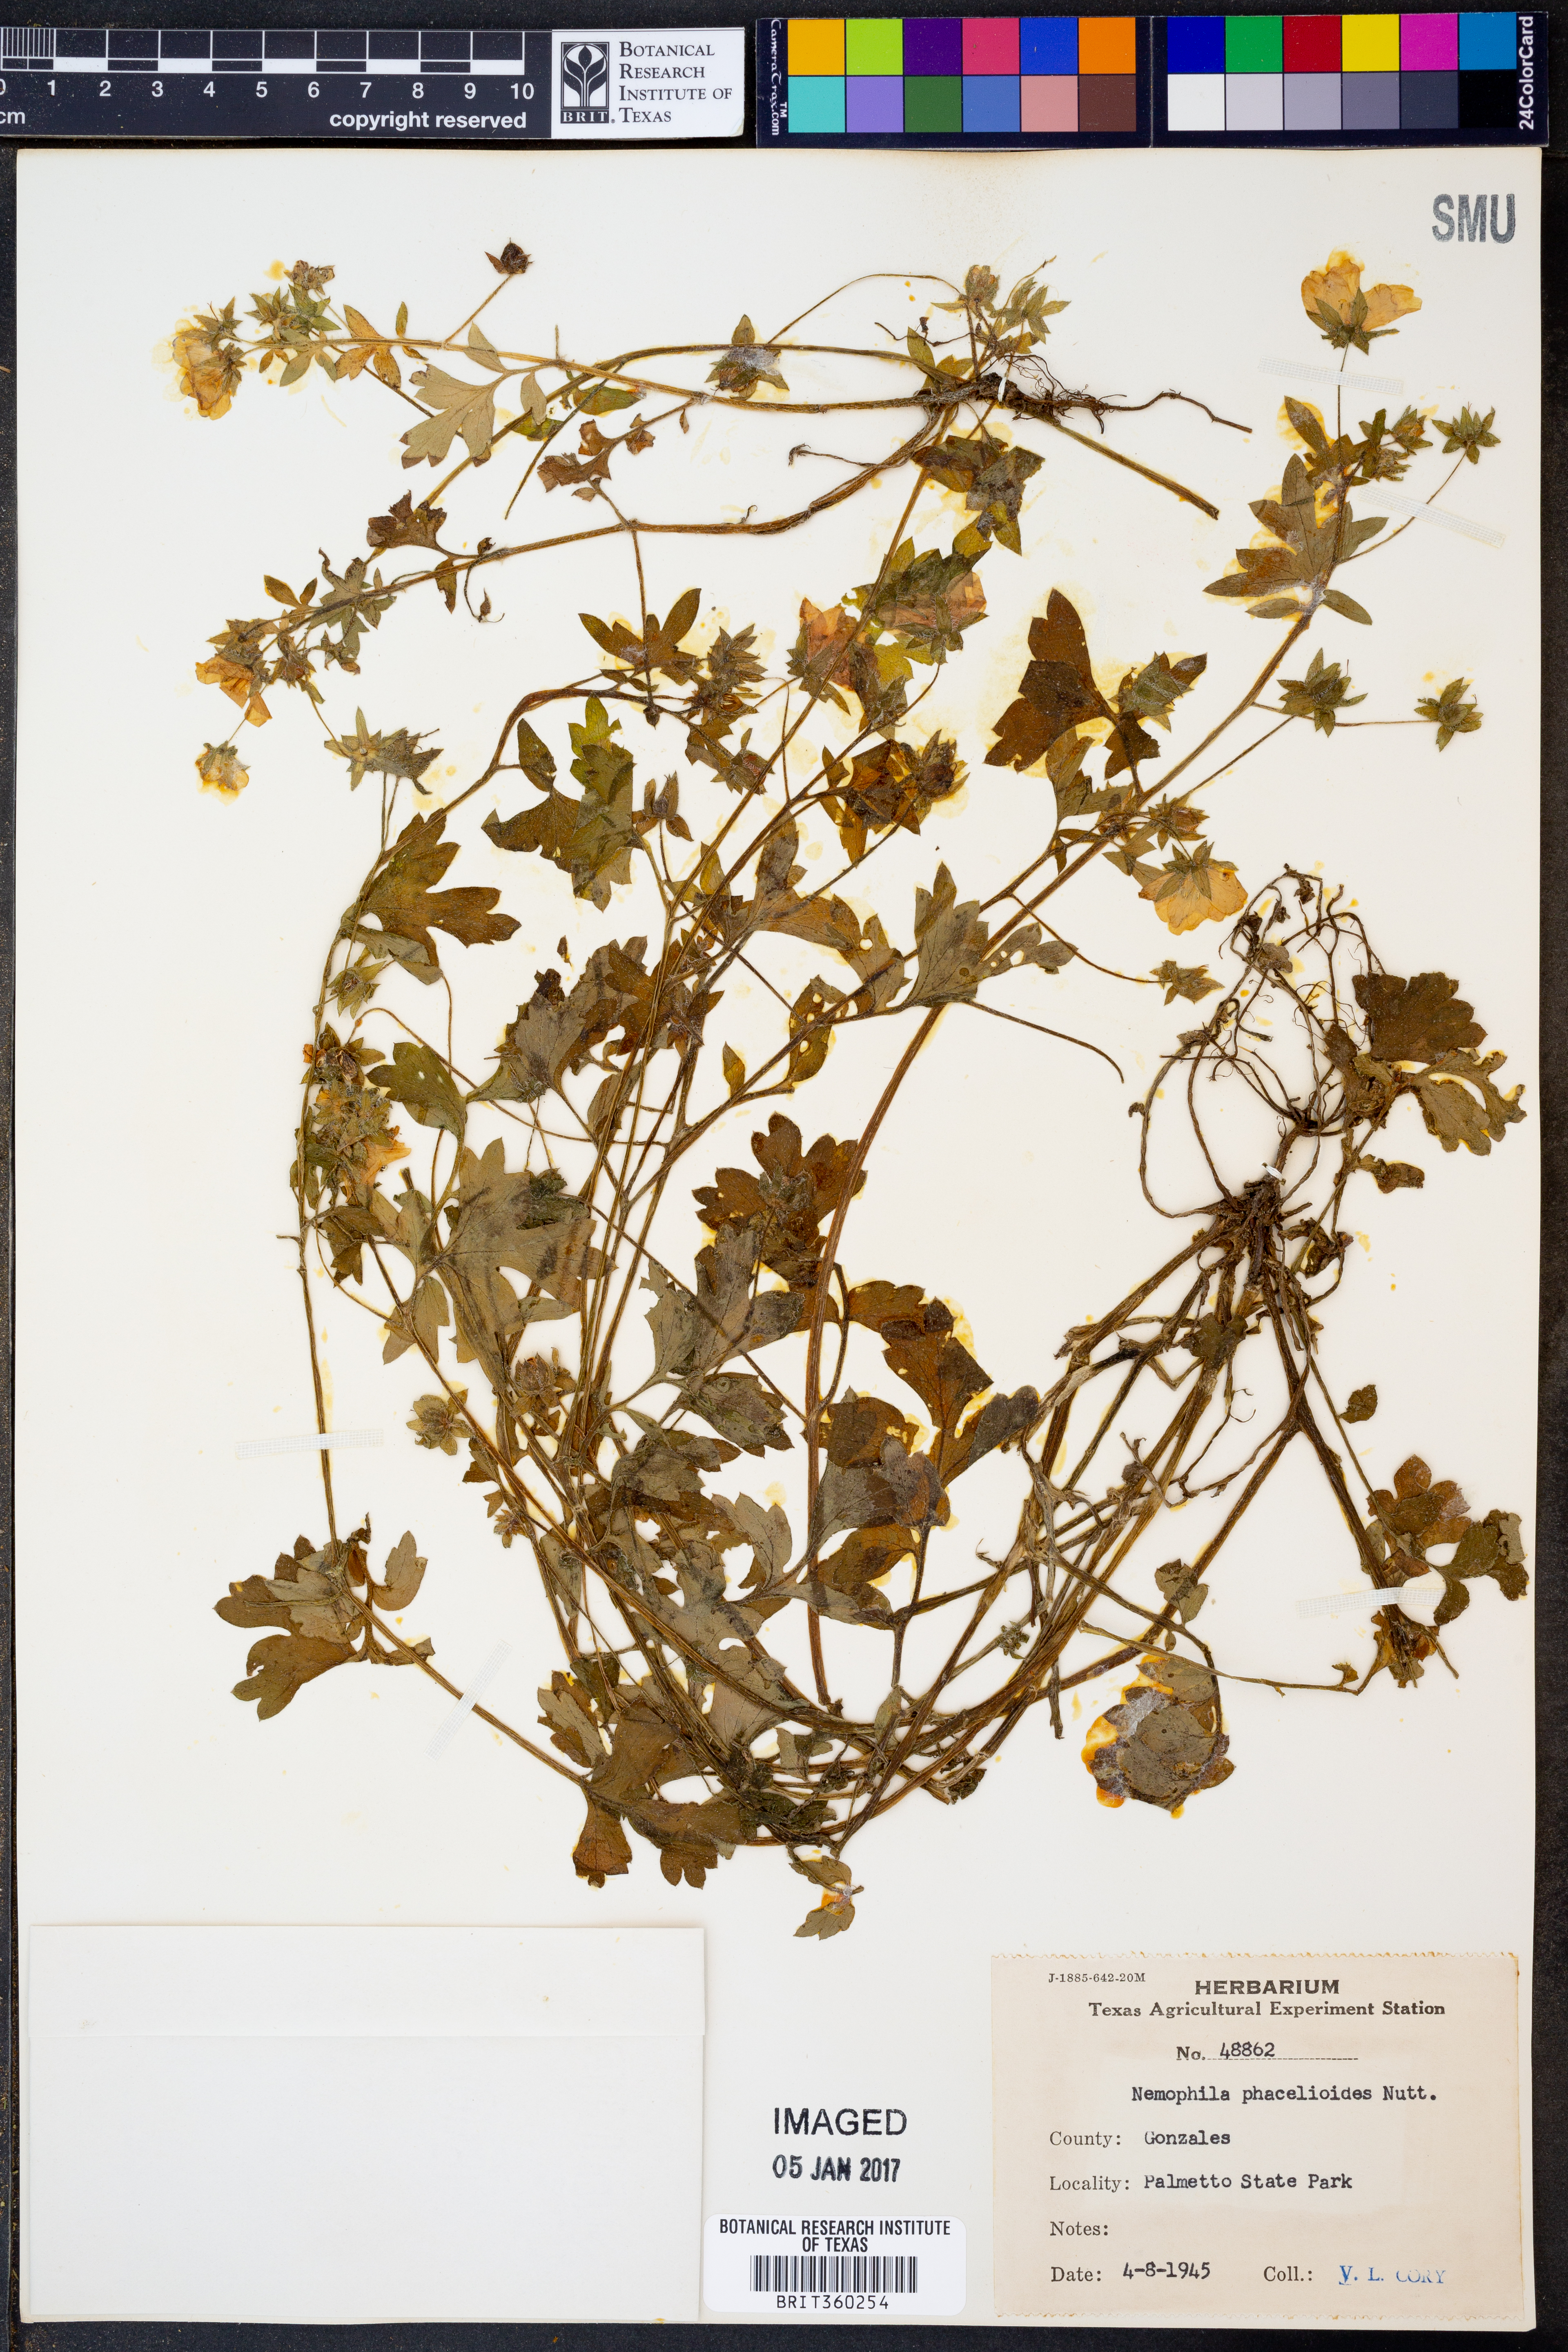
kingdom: Plantae
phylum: Tracheophyta
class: Magnoliopsida
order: Boraginales
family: Hydrophyllaceae
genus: Nemophila
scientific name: Nemophila phacelioides
